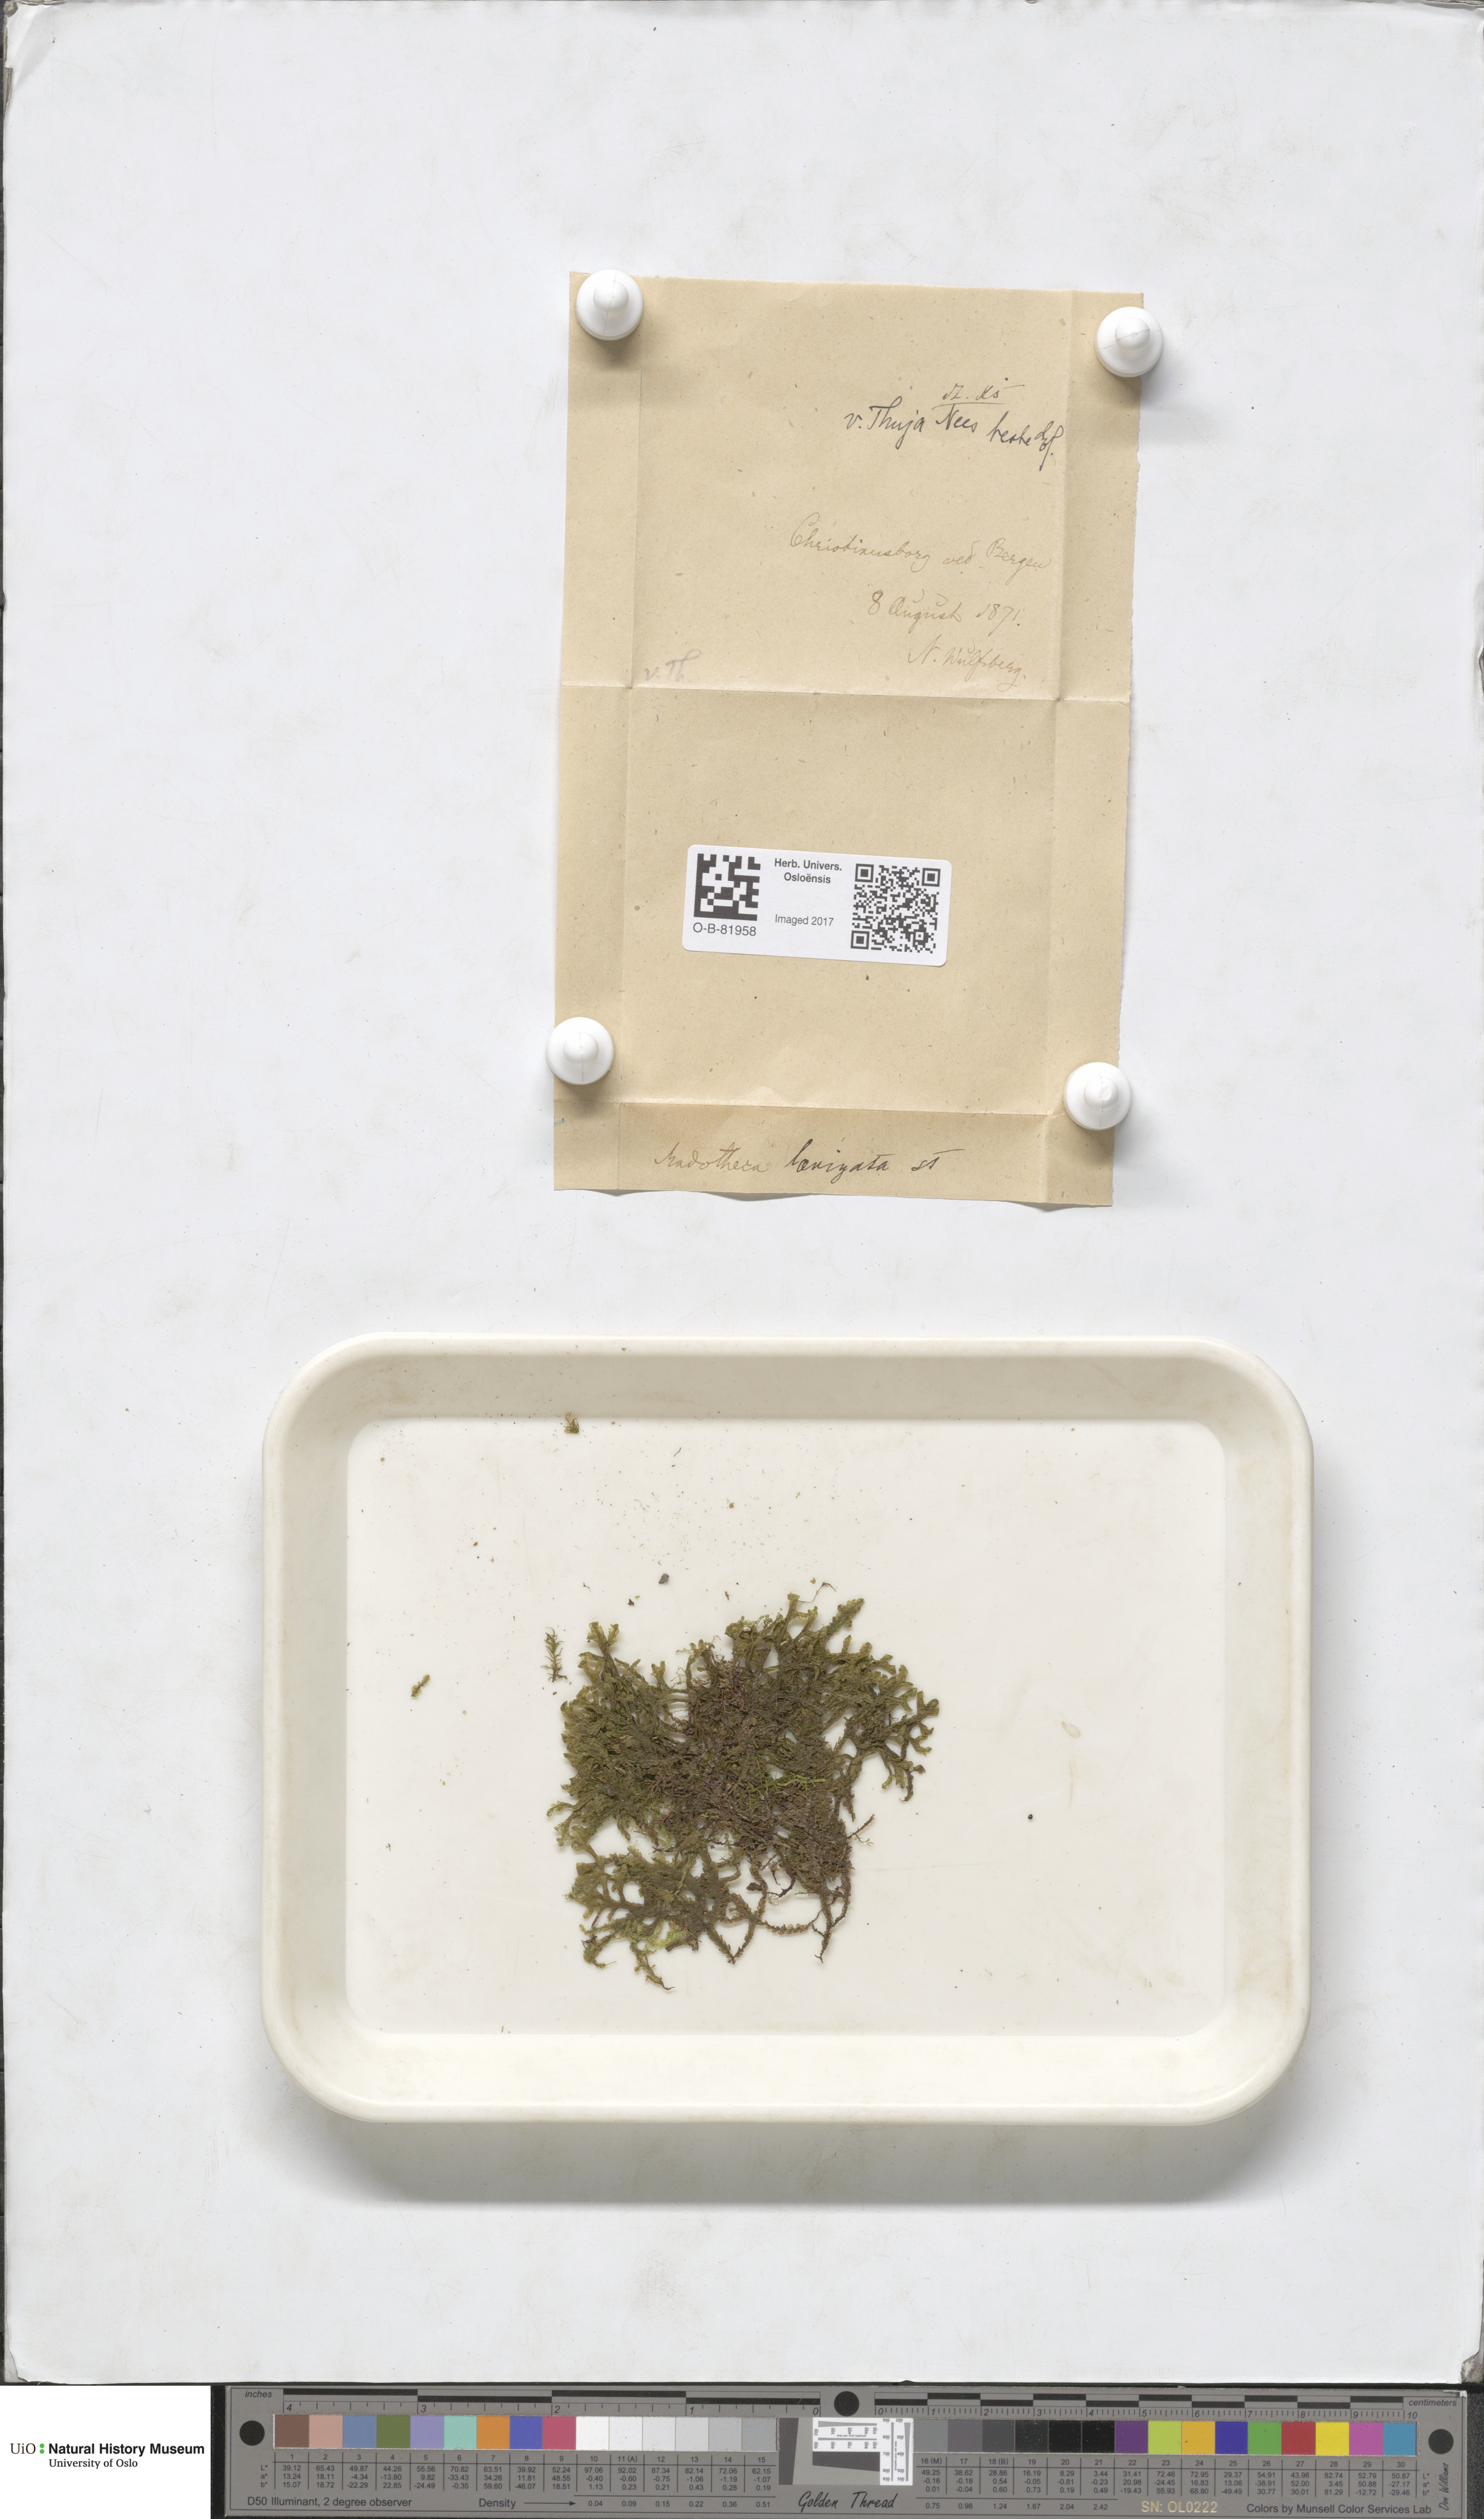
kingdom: Plantae
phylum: Marchantiophyta
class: Jungermanniopsida
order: Porellales
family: Porellaceae
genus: Porella
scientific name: Porella arboris-vitae
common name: Bitter scalewort
